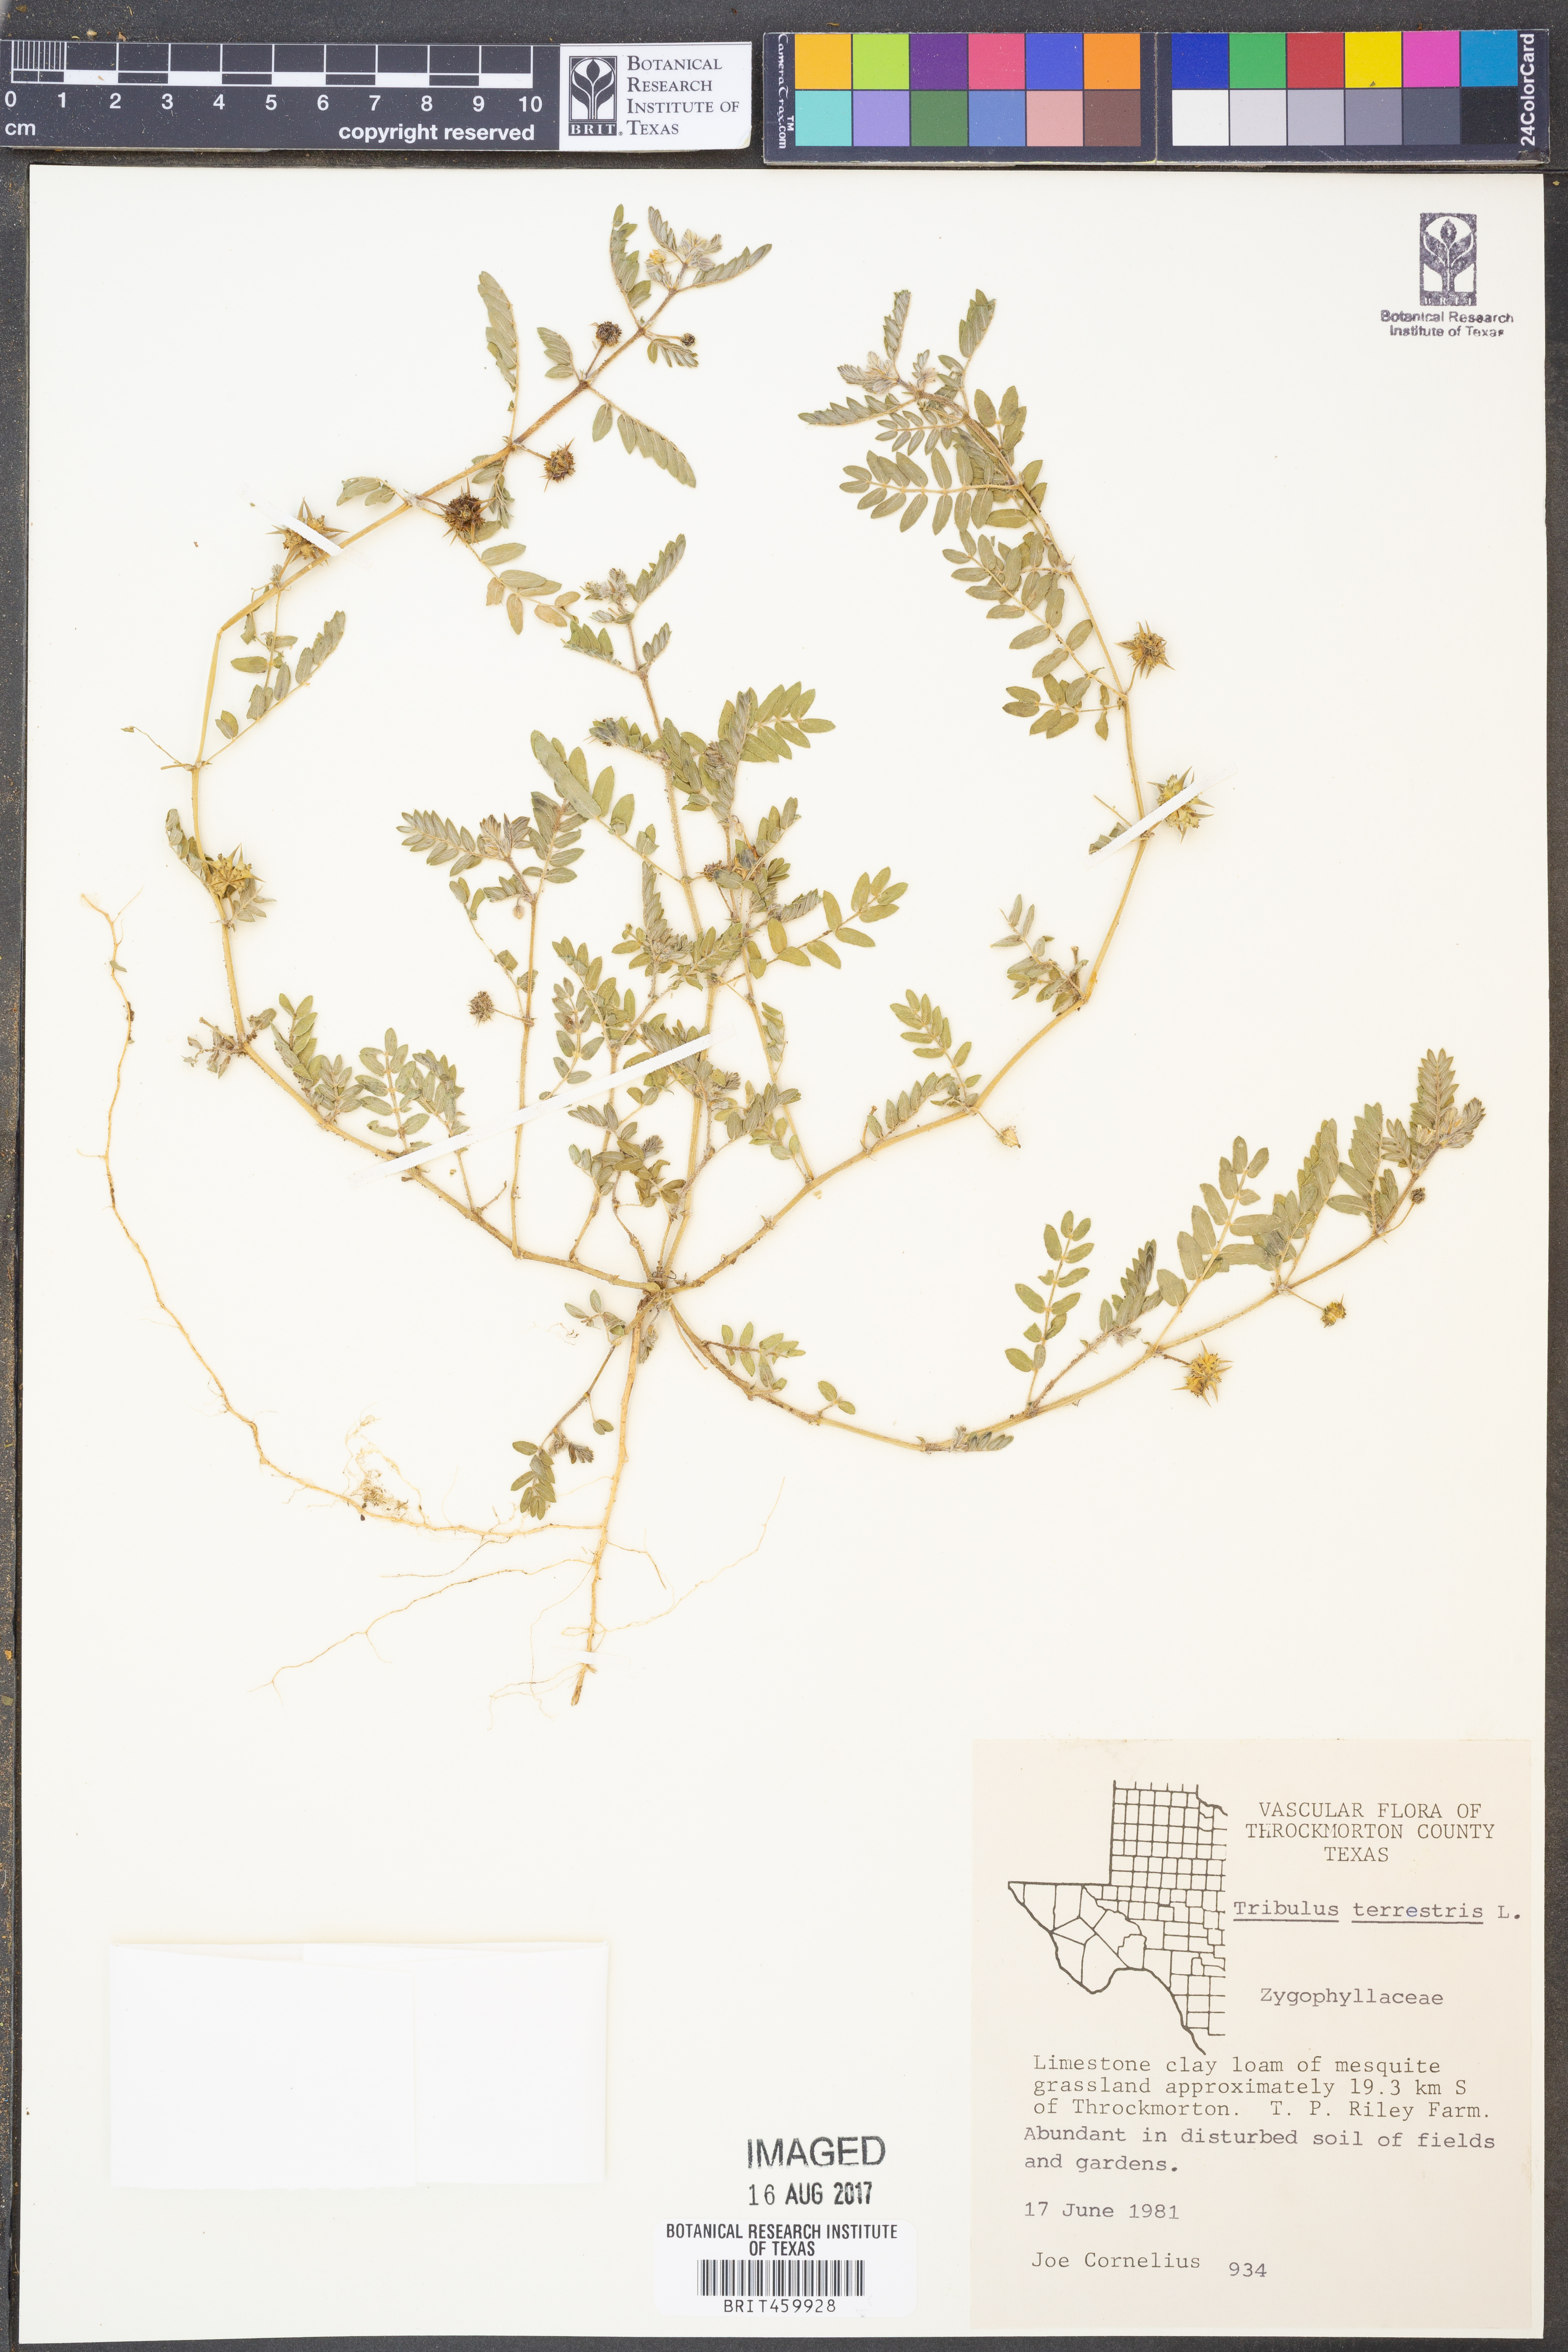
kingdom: Plantae
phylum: Tracheophyta
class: Magnoliopsida
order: Zygophyllales
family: Zygophyllaceae
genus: Tribulus
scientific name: Tribulus terrestris
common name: Puncturevine
